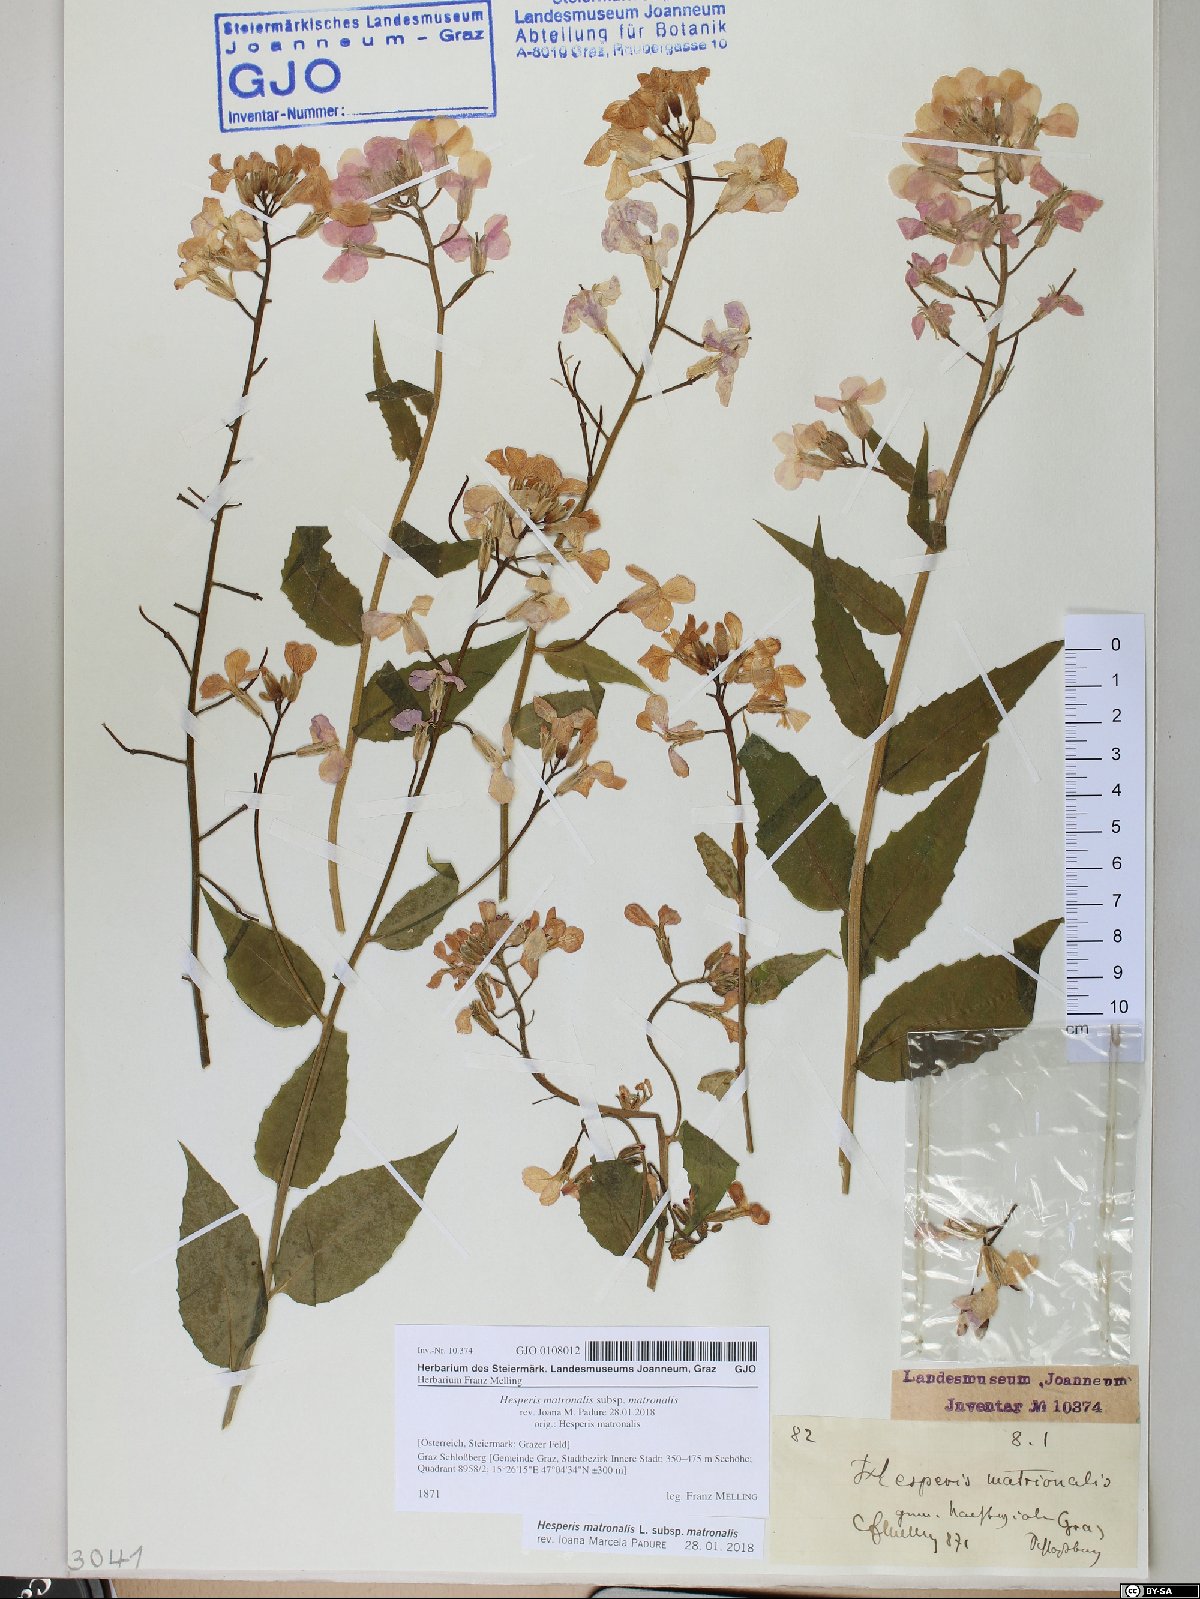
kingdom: Plantae
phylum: Tracheophyta
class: Magnoliopsida
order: Brassicales
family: Brassicaceae
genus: Hesperis
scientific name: Hesperis matronalis
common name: Dame's-violet
